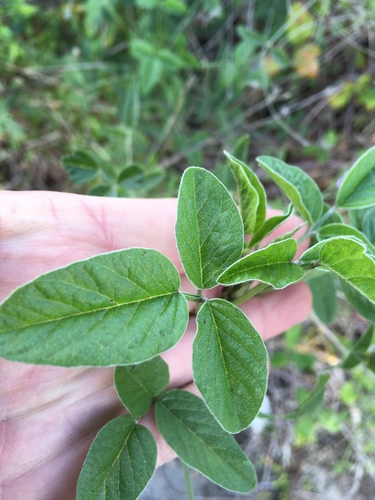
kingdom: Plantae
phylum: Tracheophyta
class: Magnoliopsida
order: Fabales
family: Fabaceae
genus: Bituminaria
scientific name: Bituminaria bituminosa
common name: Arabian pea
